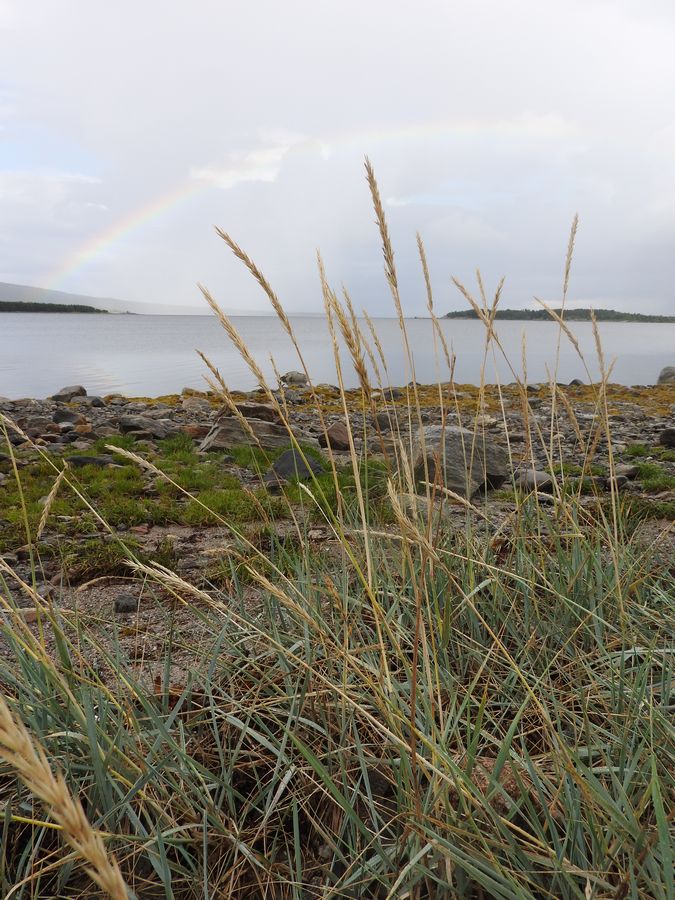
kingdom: Plantae
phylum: Tracheophyta
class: Liliopsida
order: Poales
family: Poaceae
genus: Leymus
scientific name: Leymus arenarius
